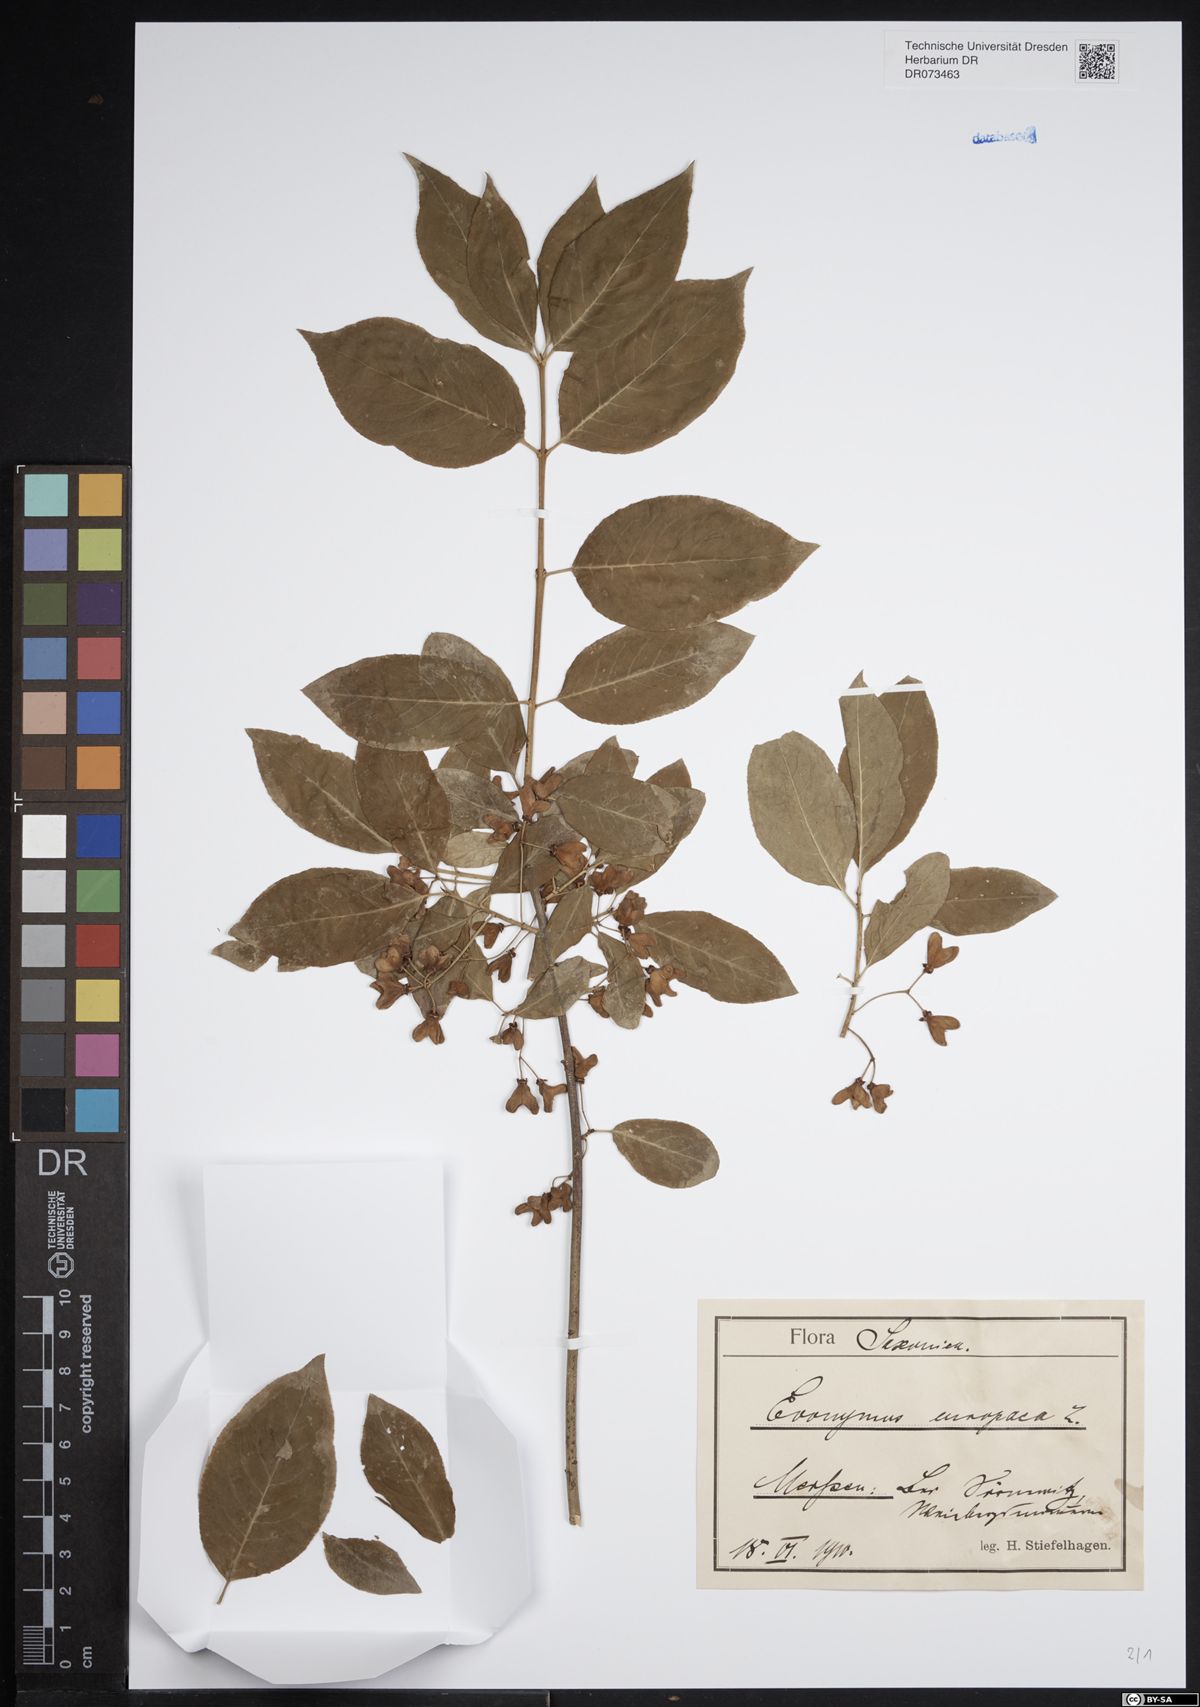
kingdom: Plantae
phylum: Tracheophyta
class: Magnoliopsida
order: Celastrales
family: Celastraceae
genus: Euonymus
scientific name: Euonymus europaeus
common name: Spindle
